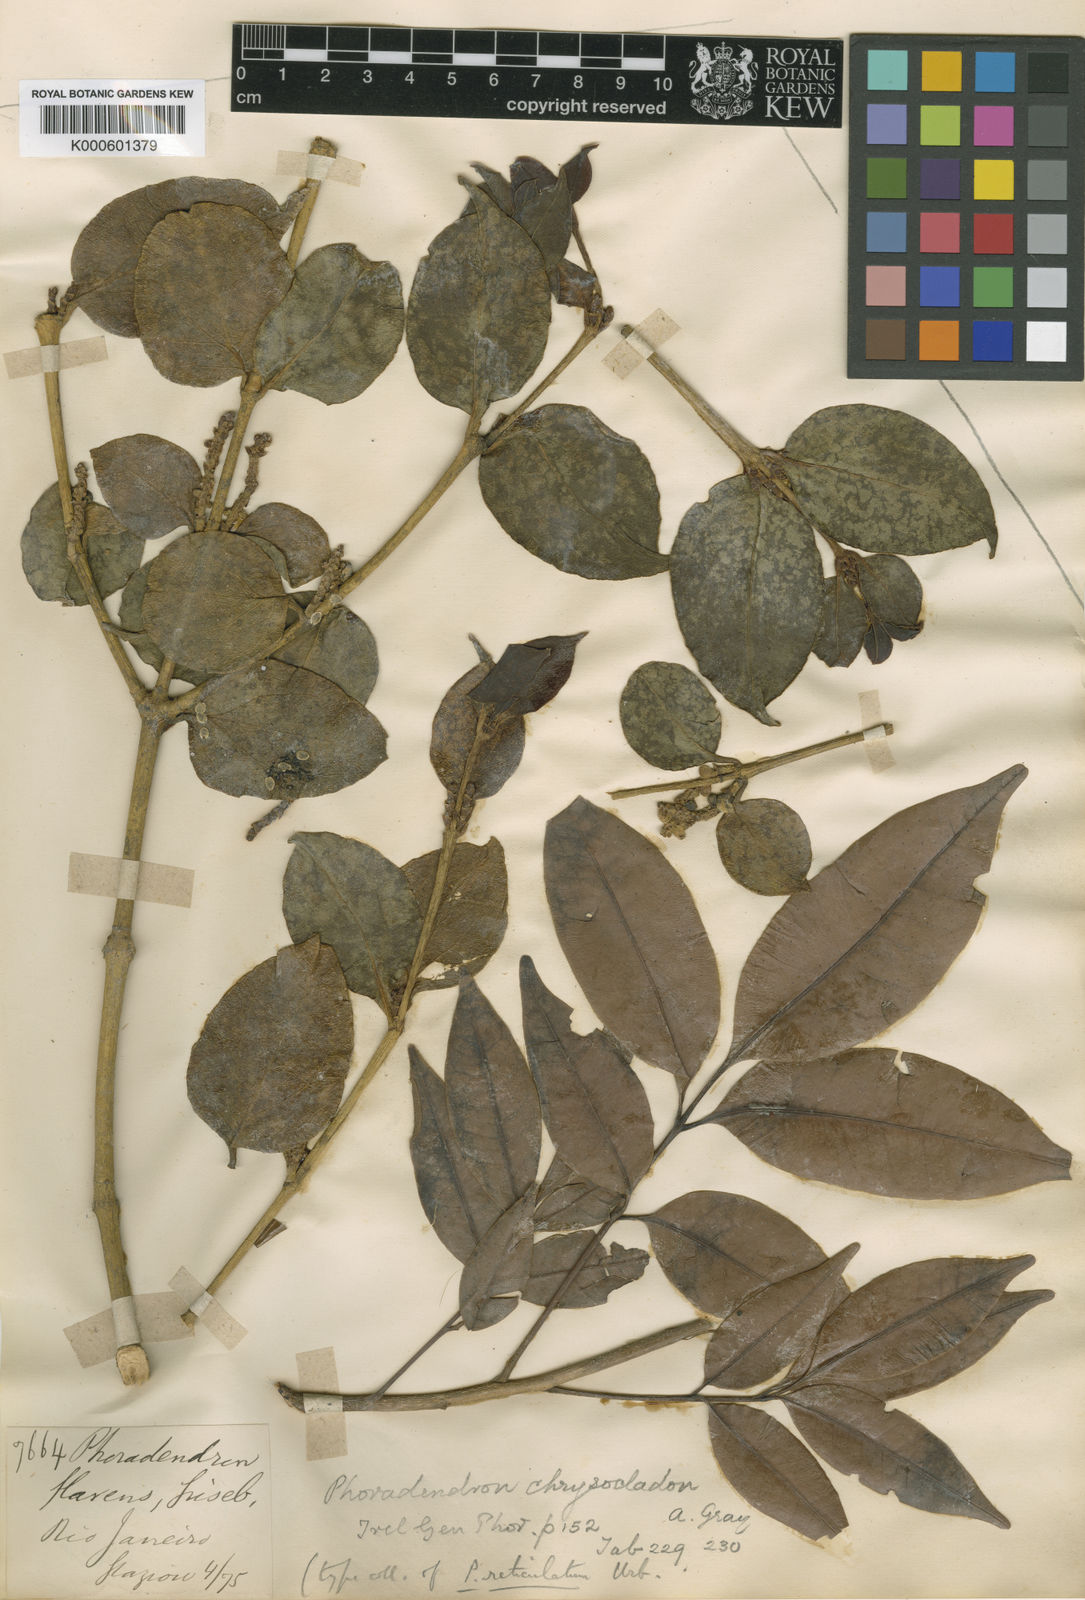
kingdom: Plantae
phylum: Tracheophyta
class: Magnoliopsida
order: Santalales
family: Viscaceae
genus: Phoradendron
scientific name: Phoradendron chrysocladon
